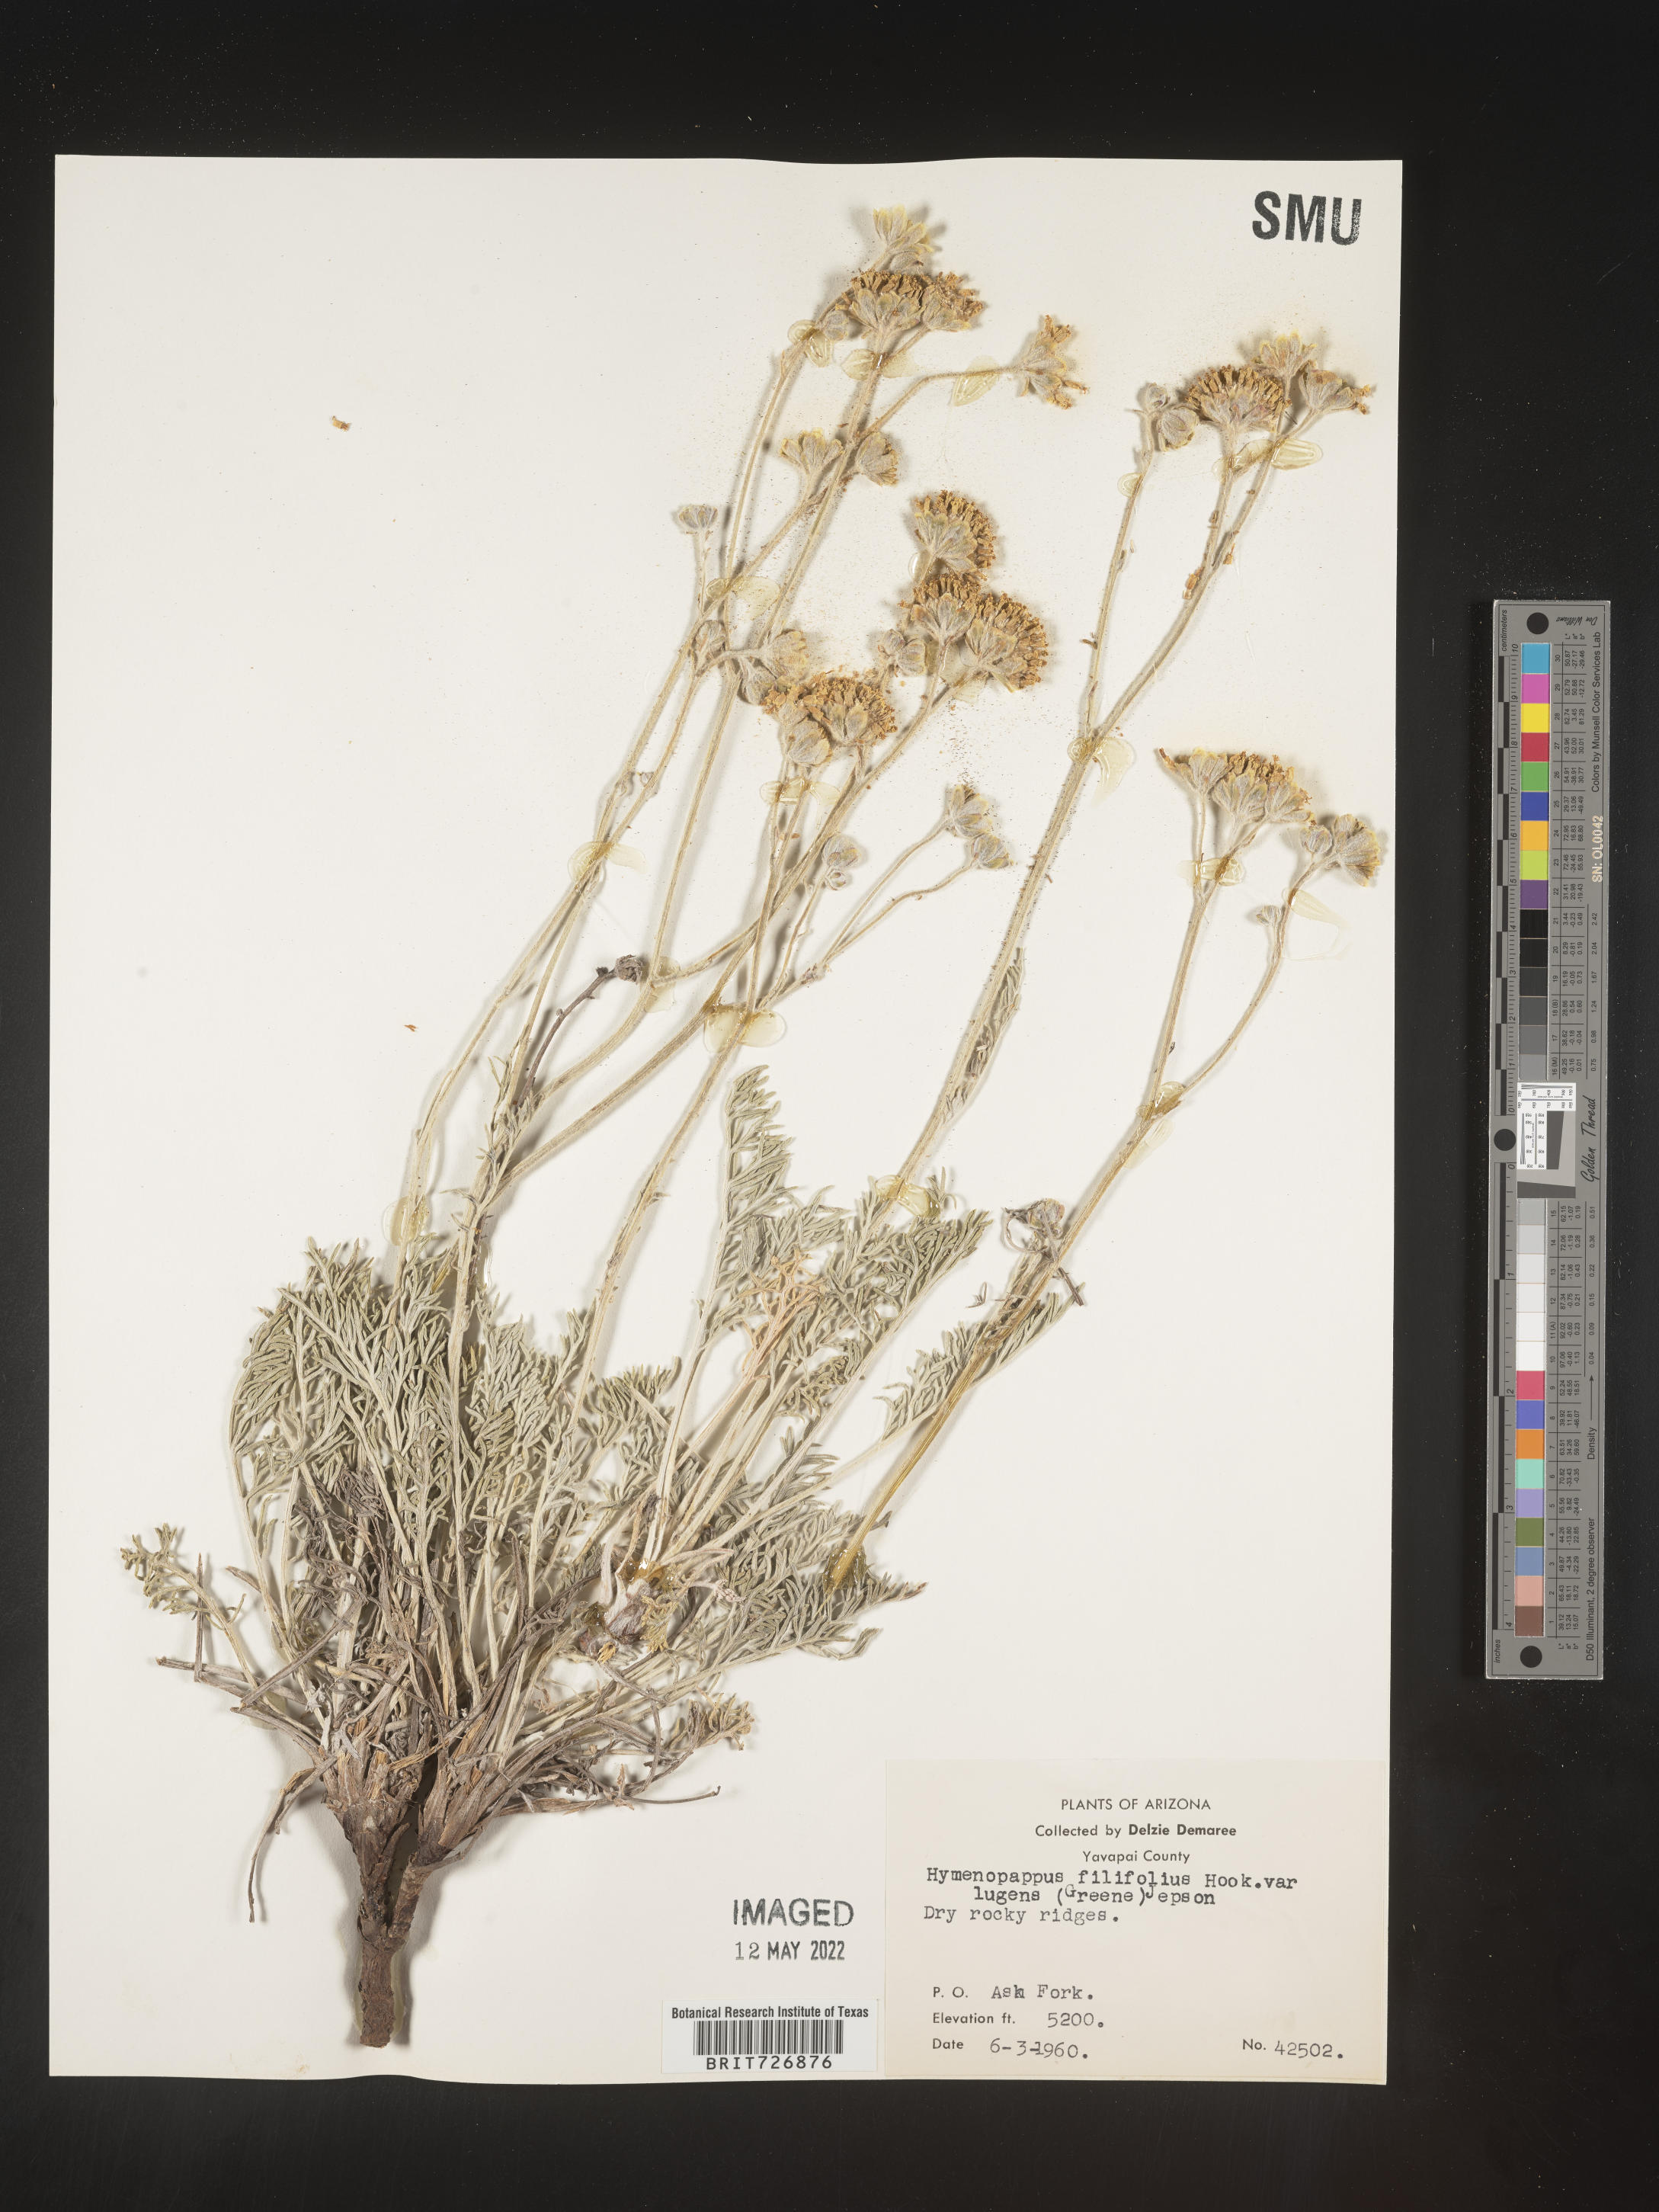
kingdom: Plantae
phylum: Tracheophyta
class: Magnoliopsida
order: Asterales
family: Asteraceae
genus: Hymenopappus
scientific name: Hymenopappus filifolius
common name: Columbia cutleaf
